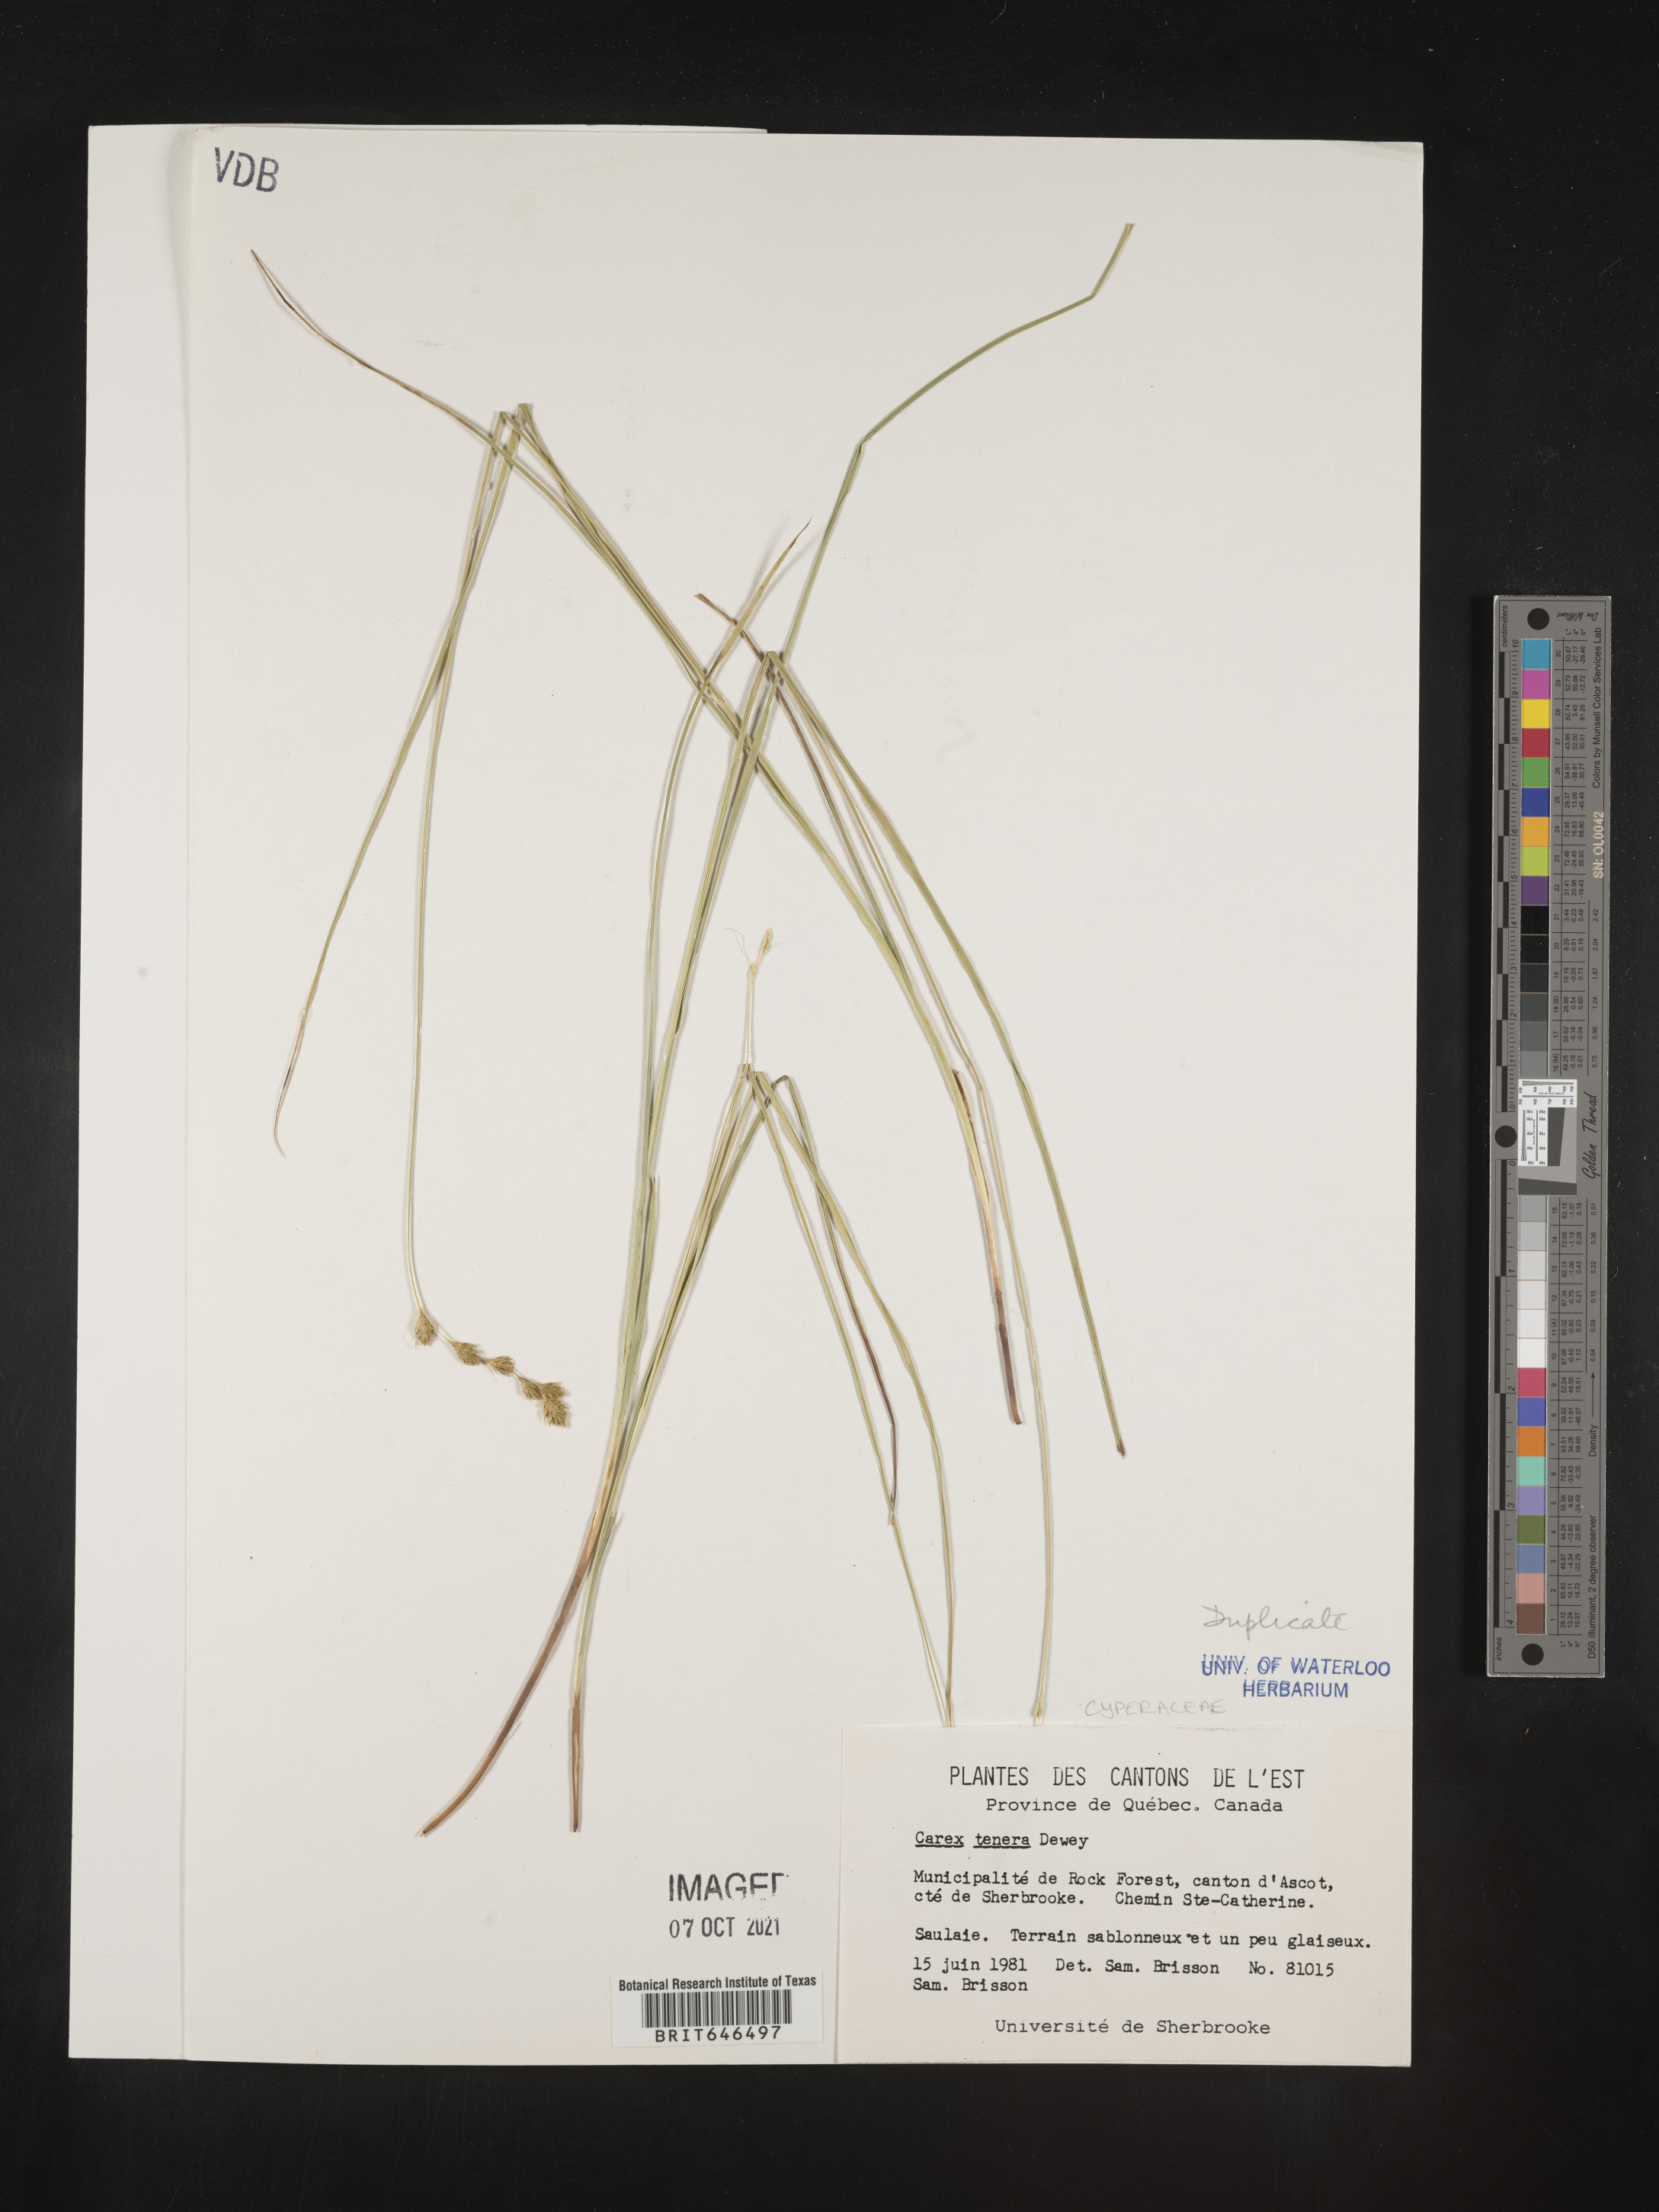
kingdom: Plantae
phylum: Tracheophyta
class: Liliopsida
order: Poales
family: Cyperaceae
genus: Carex
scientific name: Carex tenera
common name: Broad-fruited sedge
